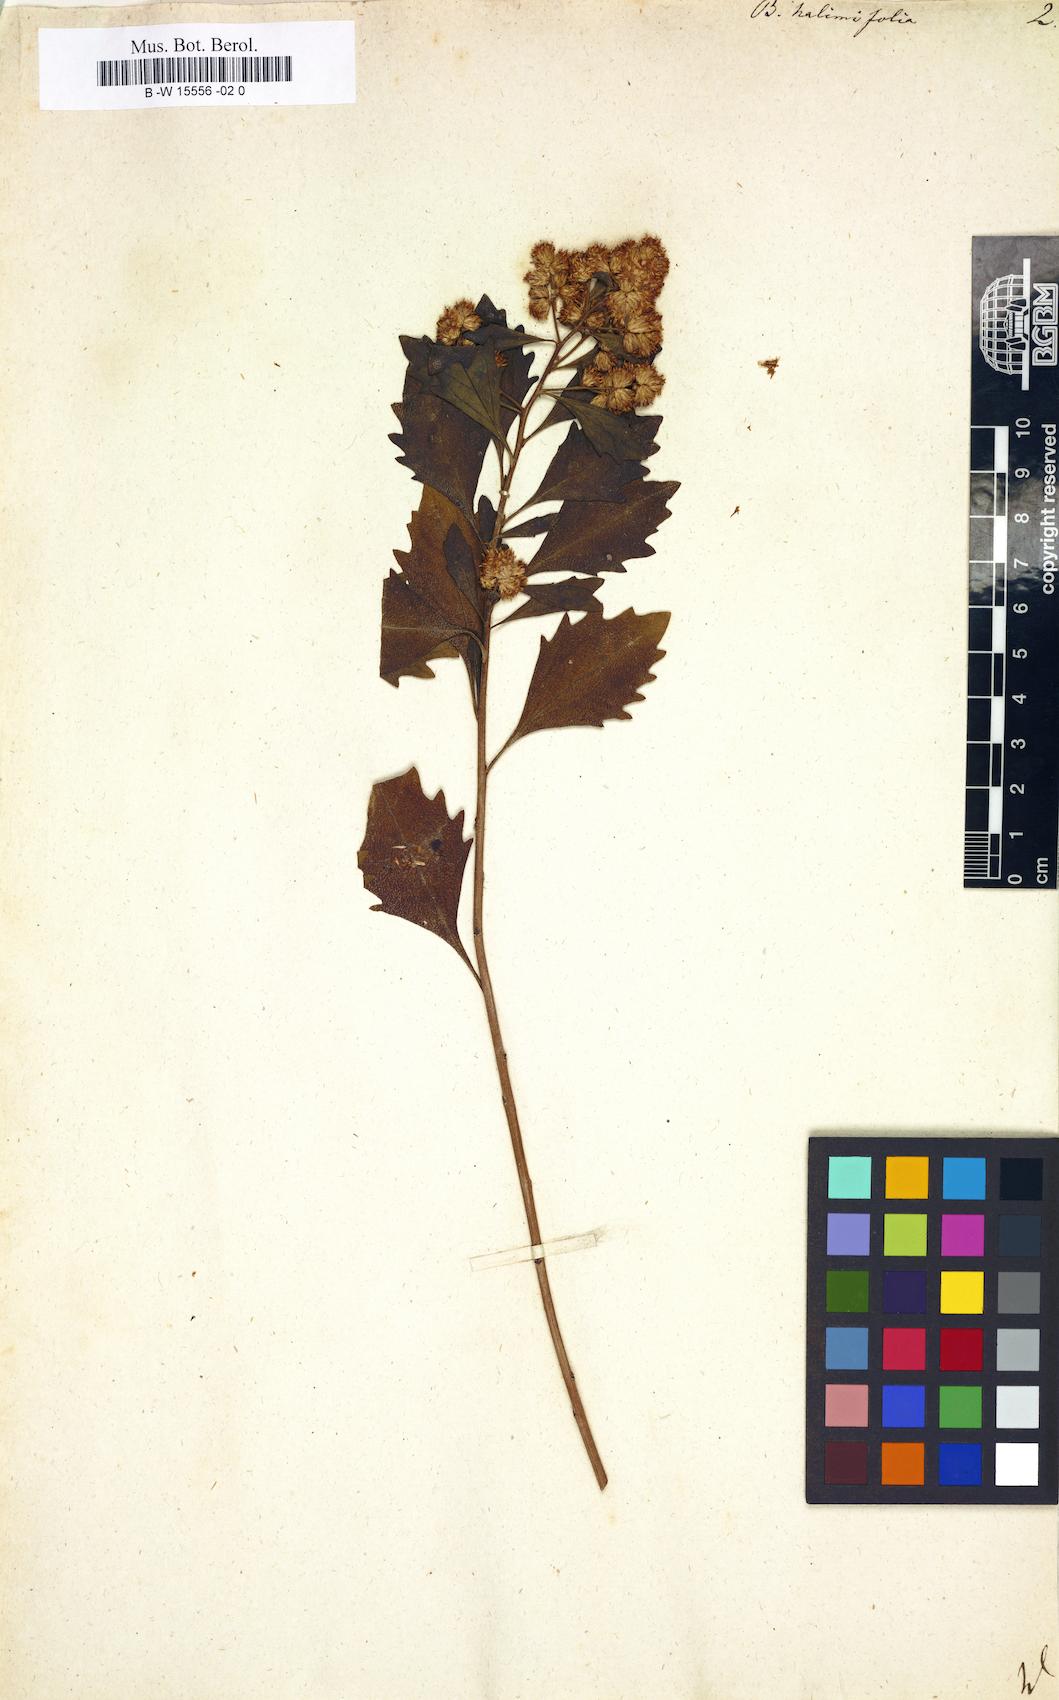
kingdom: Plantae
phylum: Tracheophyta
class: Magnoliopsida
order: Asterales
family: Asteraceae
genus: Baccharis
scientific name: Baccharis halimifolia
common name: Eastern baccharis
